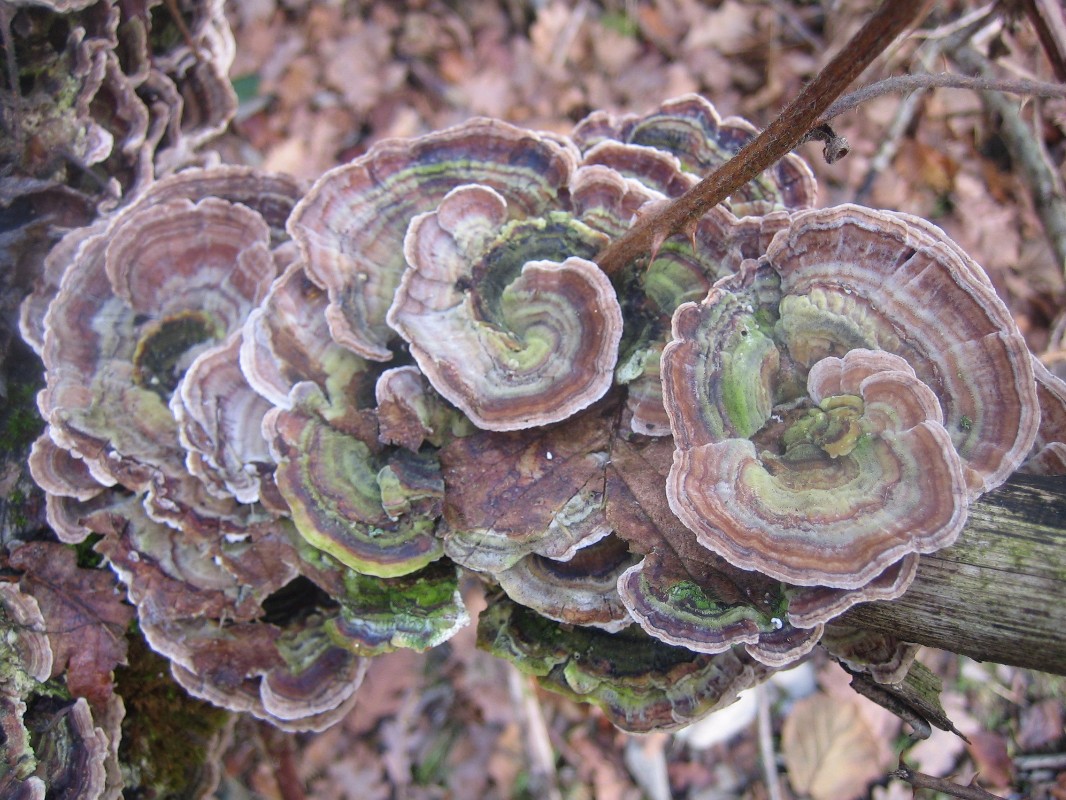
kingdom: Fungi
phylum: Basidiomycota
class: Agaricomycetes
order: Polyporales
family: Polyporaceae
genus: Trametes
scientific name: Trametes versicolor
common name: broget læderporesvamp
